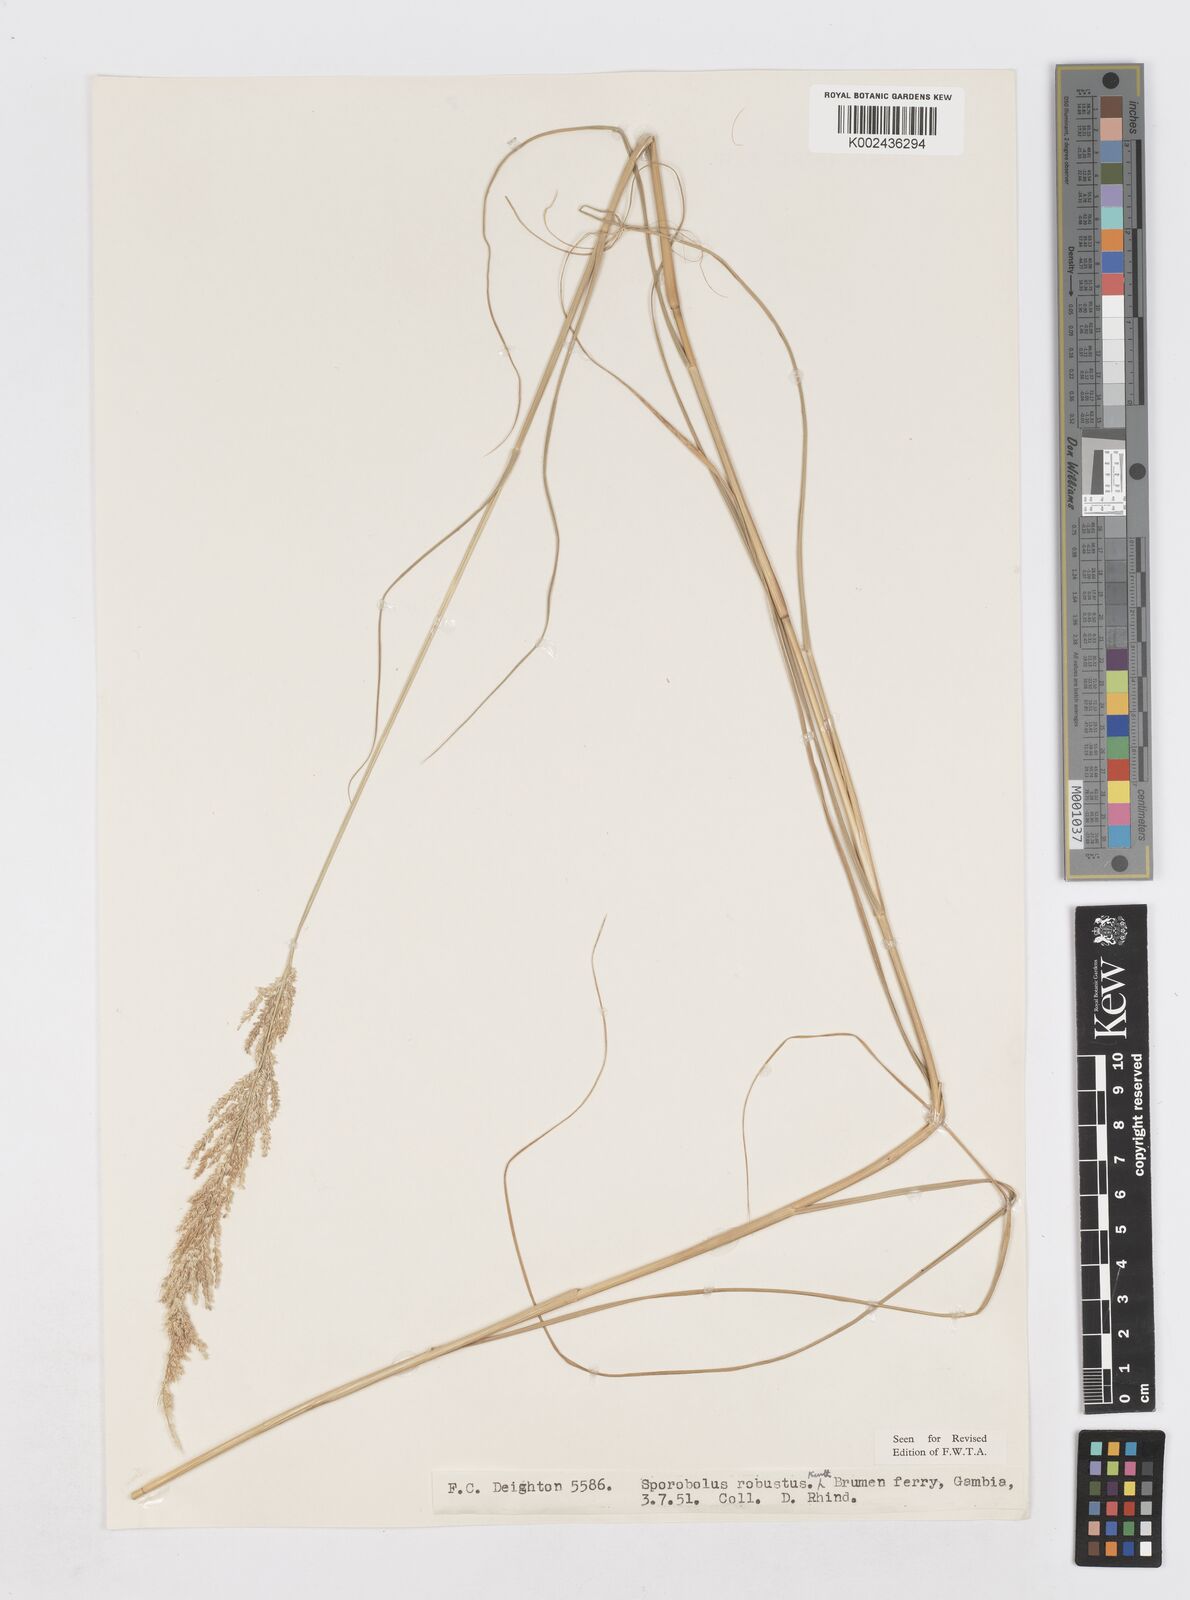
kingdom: Plantae
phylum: Tracheophyta
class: Liliopsida
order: Poales
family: Poaceae
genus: Sporobolus
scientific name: Sporobolus robustus
